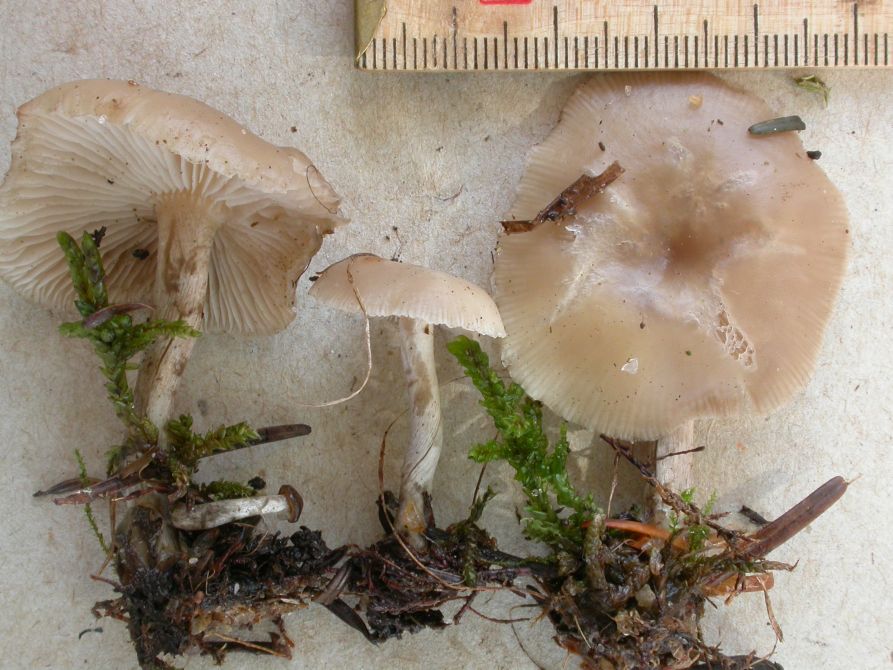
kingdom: Fungi
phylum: Basidiomycota
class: Agaricomycetes
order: Agaricales
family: Tricholomataceae
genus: Clitocybe
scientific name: Clitocybe vibecina
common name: randstribet tragthat
